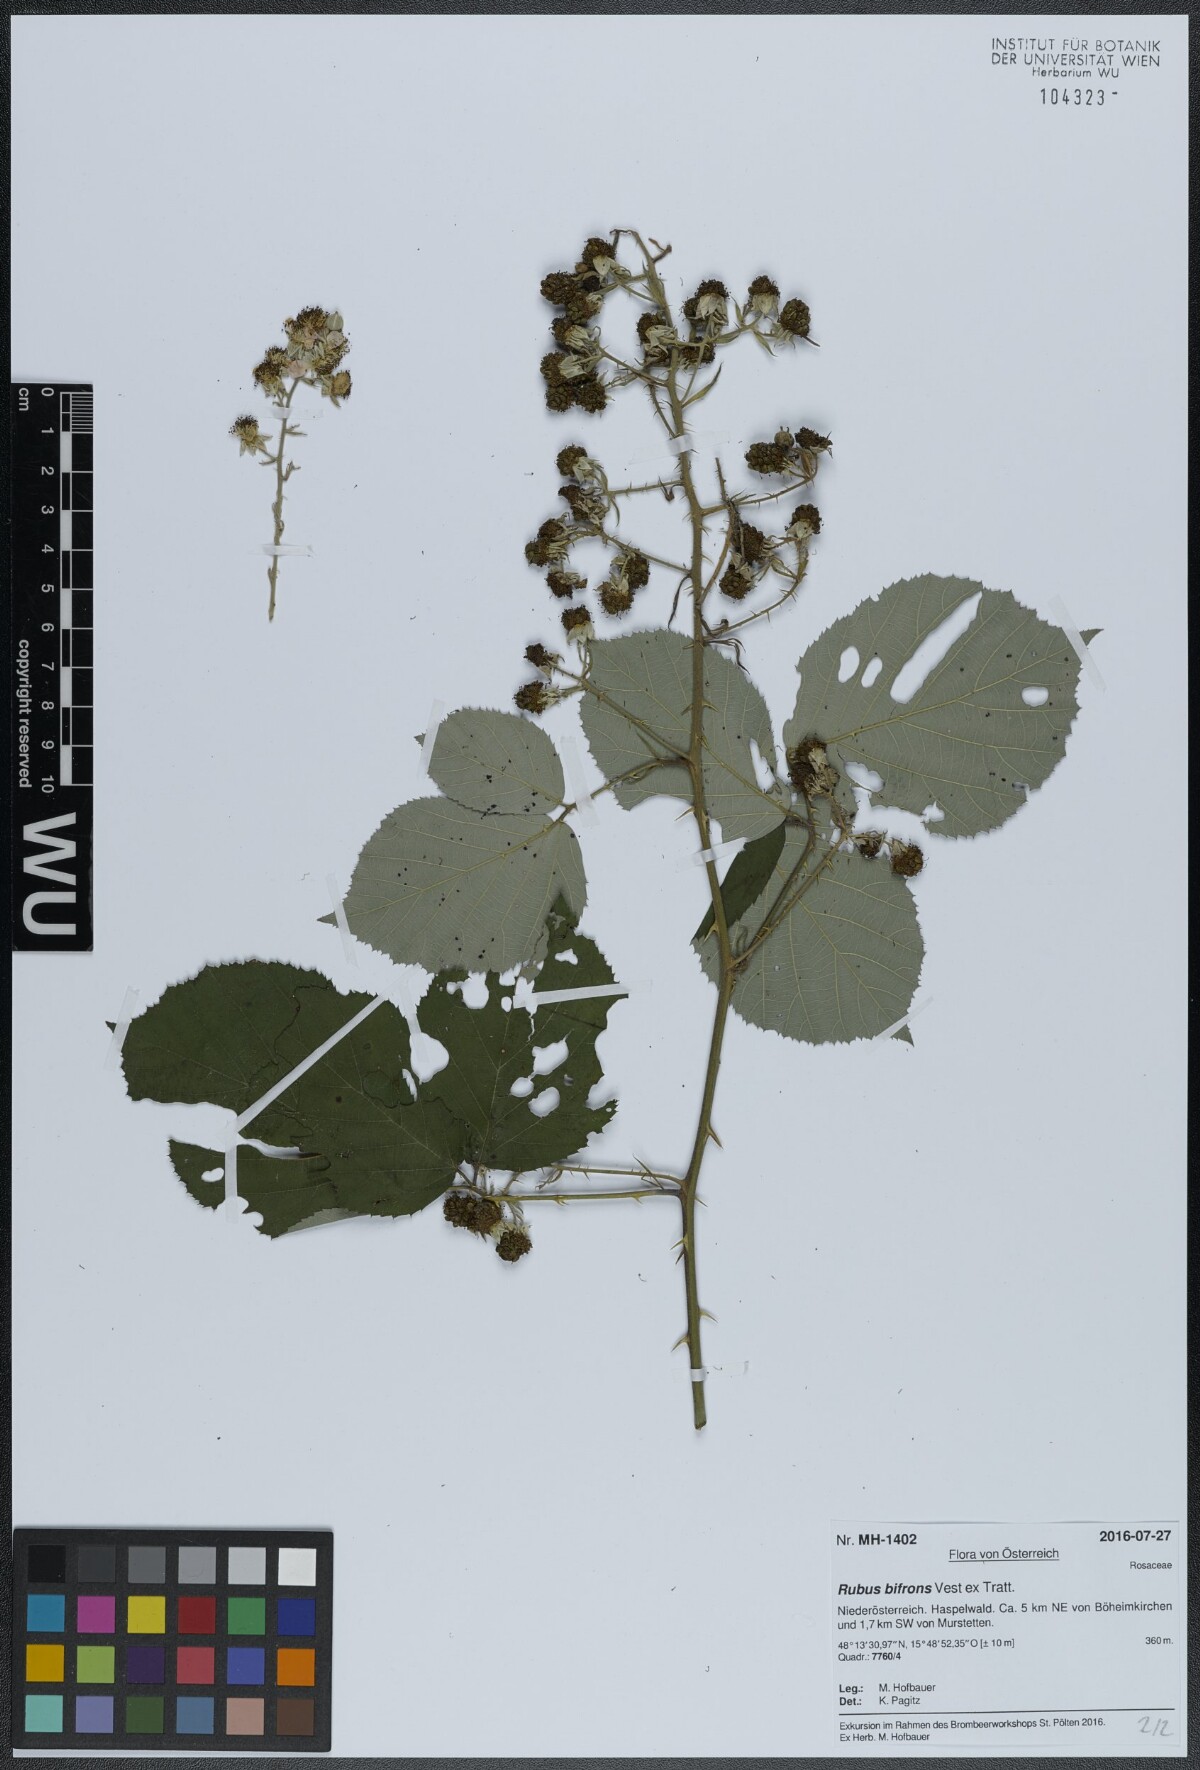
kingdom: Plantae
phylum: Tracheophyta
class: Magnoliopsida
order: Rosales
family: Rosaceae
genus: Rubus
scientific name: Rubus bifrons
